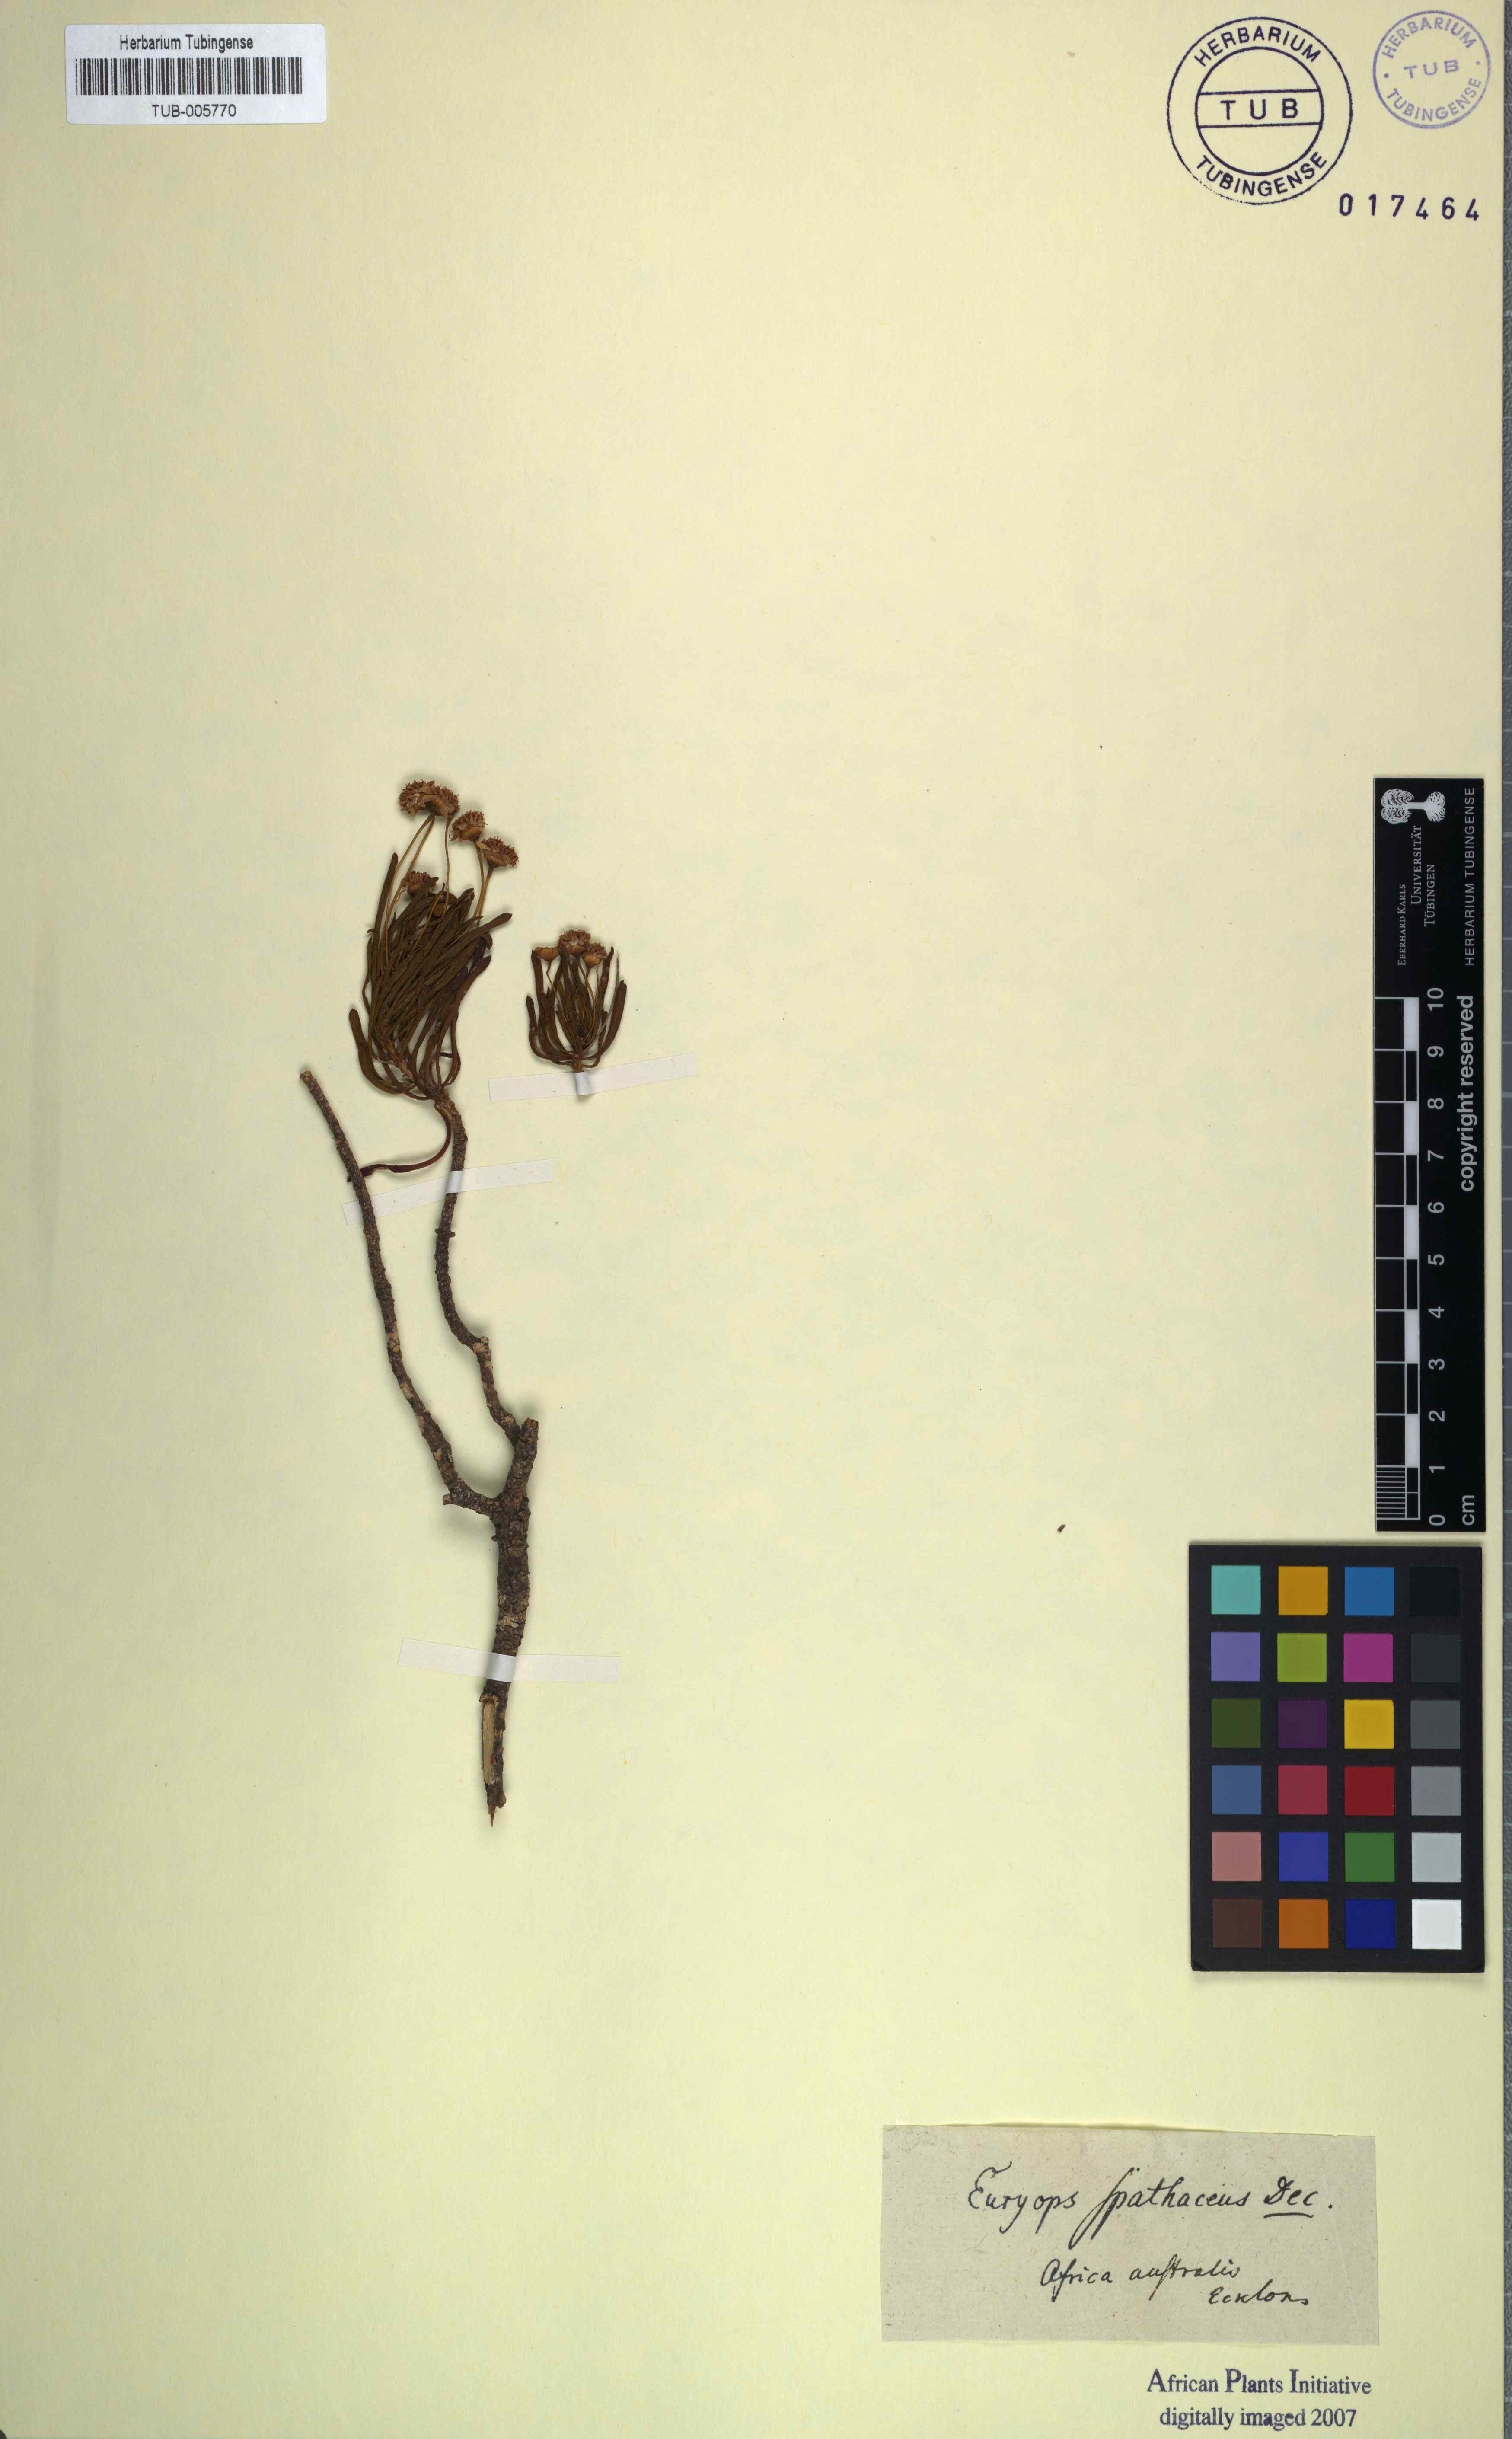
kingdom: Plantae
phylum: Tracheophyta
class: Magnoliopsida
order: Asterales
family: Asteraceae
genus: Euryops
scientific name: Euryops spathaceus
